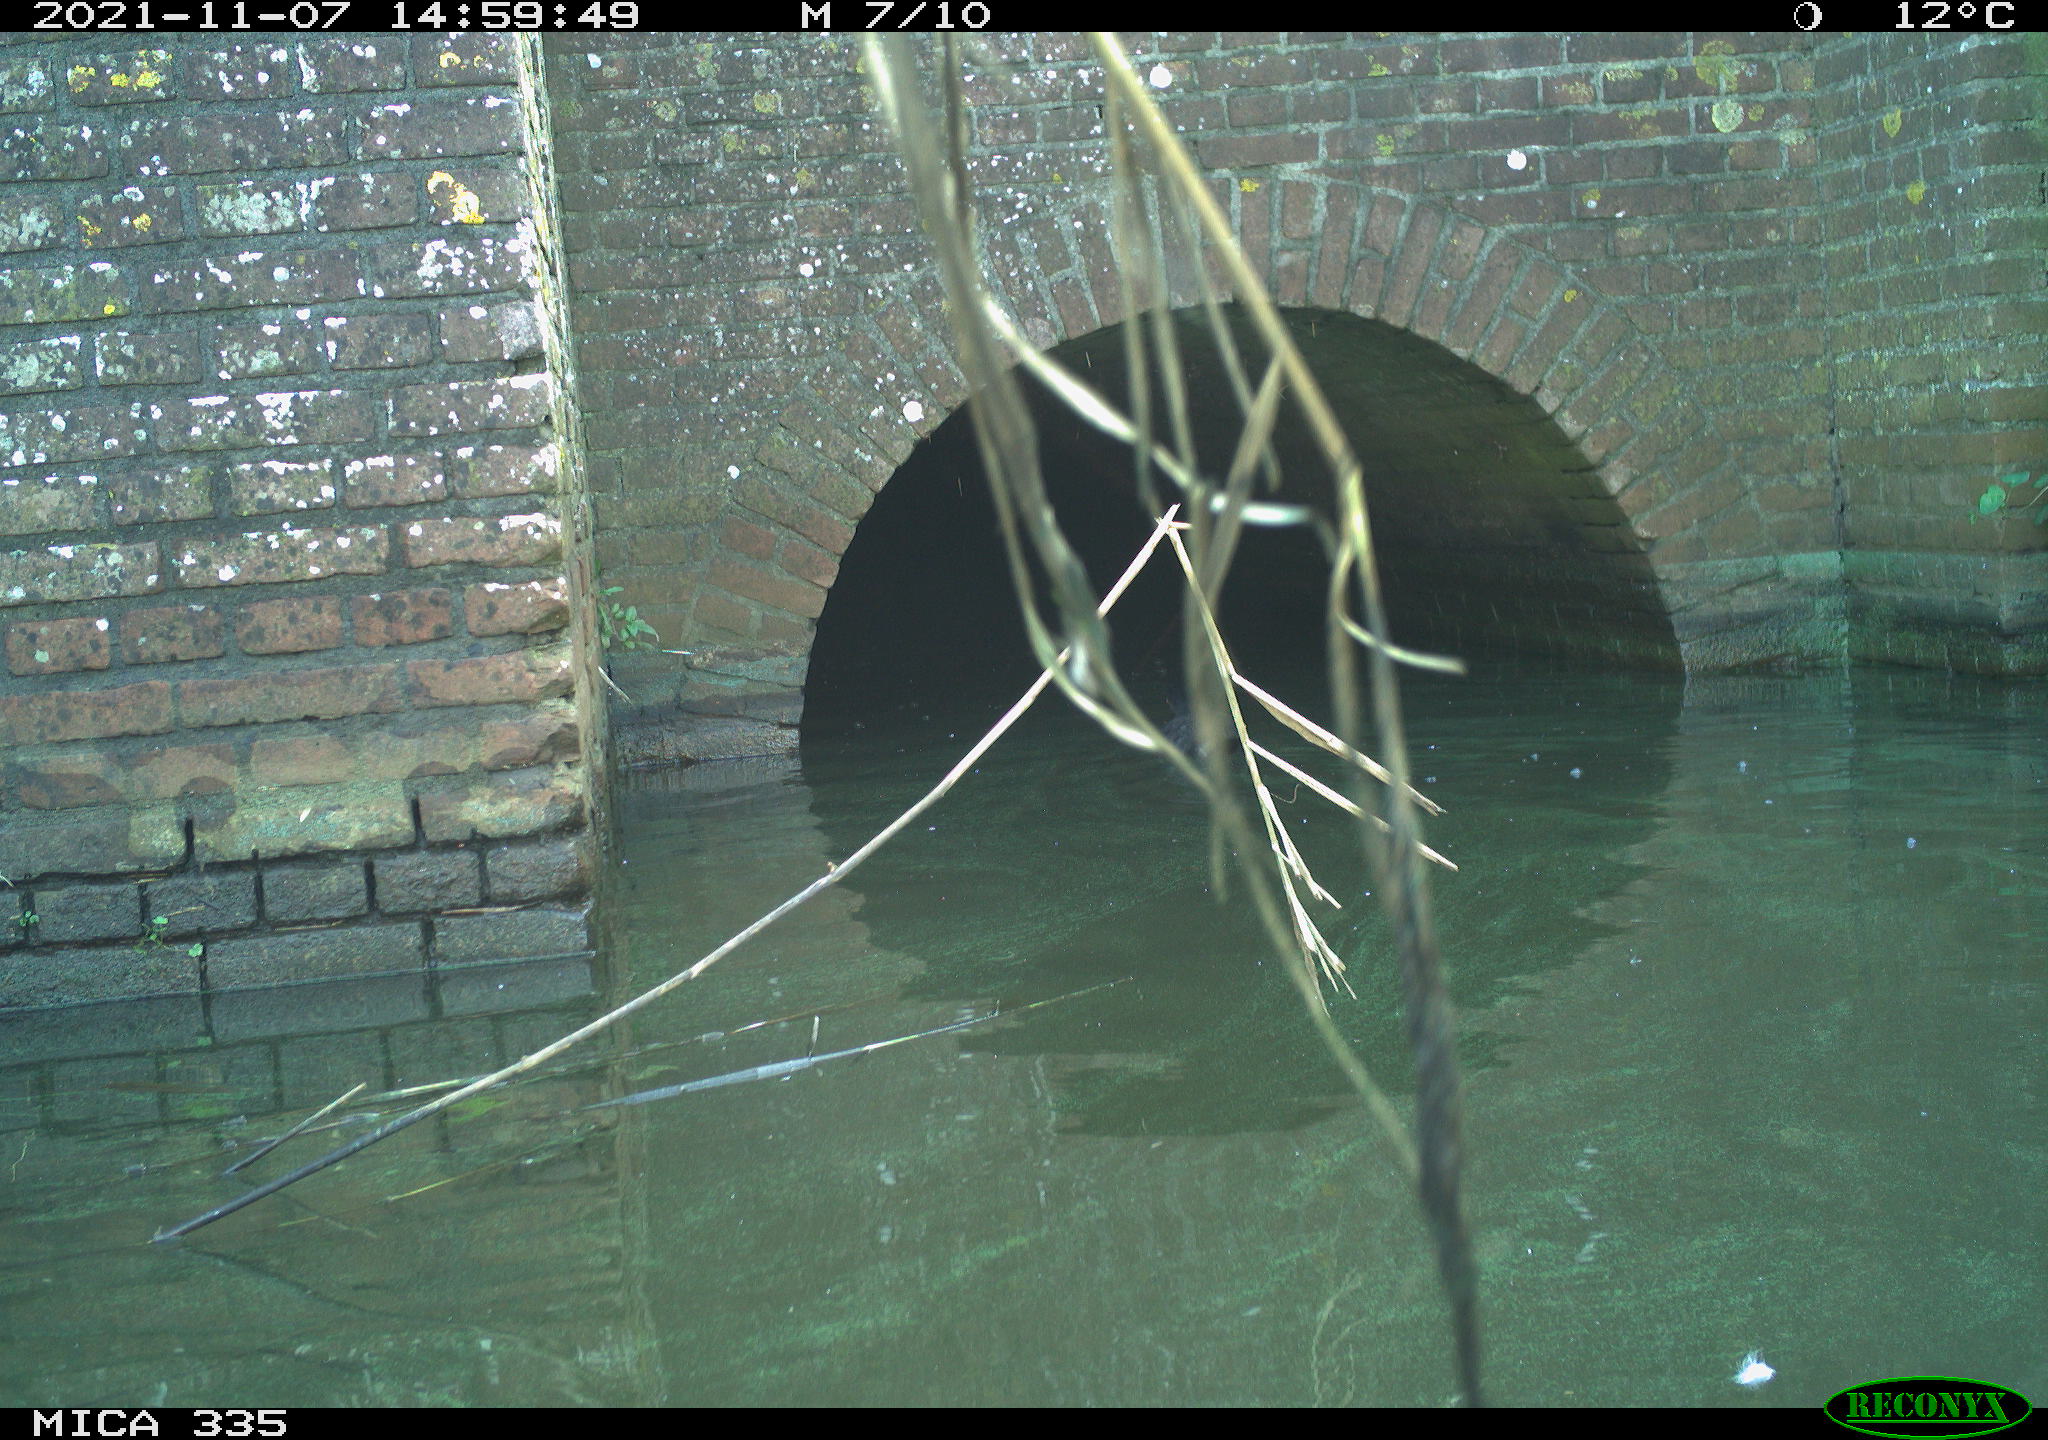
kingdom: Animalia
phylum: Chordata
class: Aves
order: Gruiformes
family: Rallidae
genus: Fulica
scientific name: Fulica atra
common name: Eurasian coot
